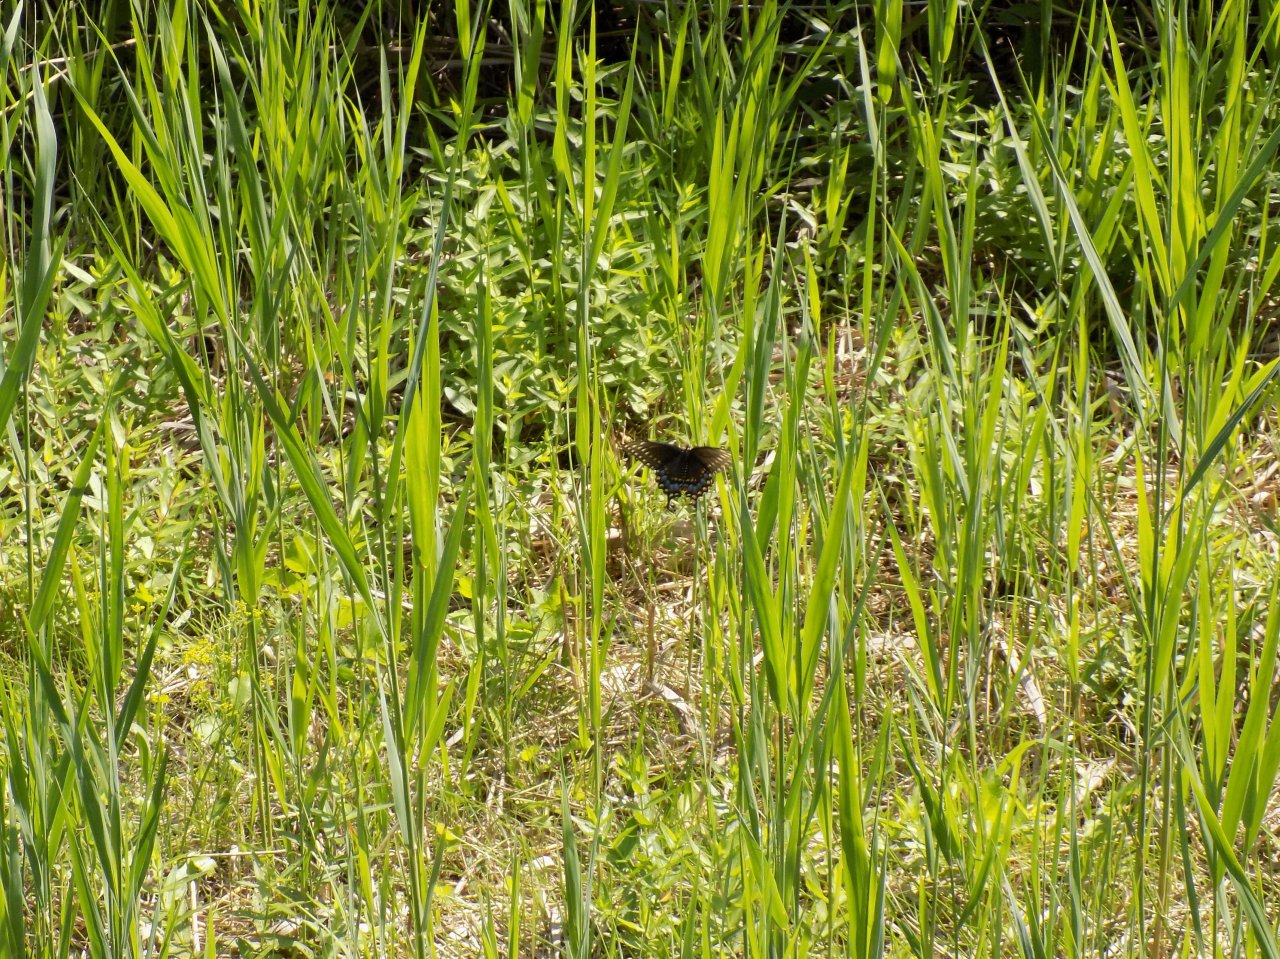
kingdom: Animalia
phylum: Arthropoda
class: Insecta
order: Lepidoptera
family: Papilionidae
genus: Papilio
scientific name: Papilio polyxenes
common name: Black Swallowtail
